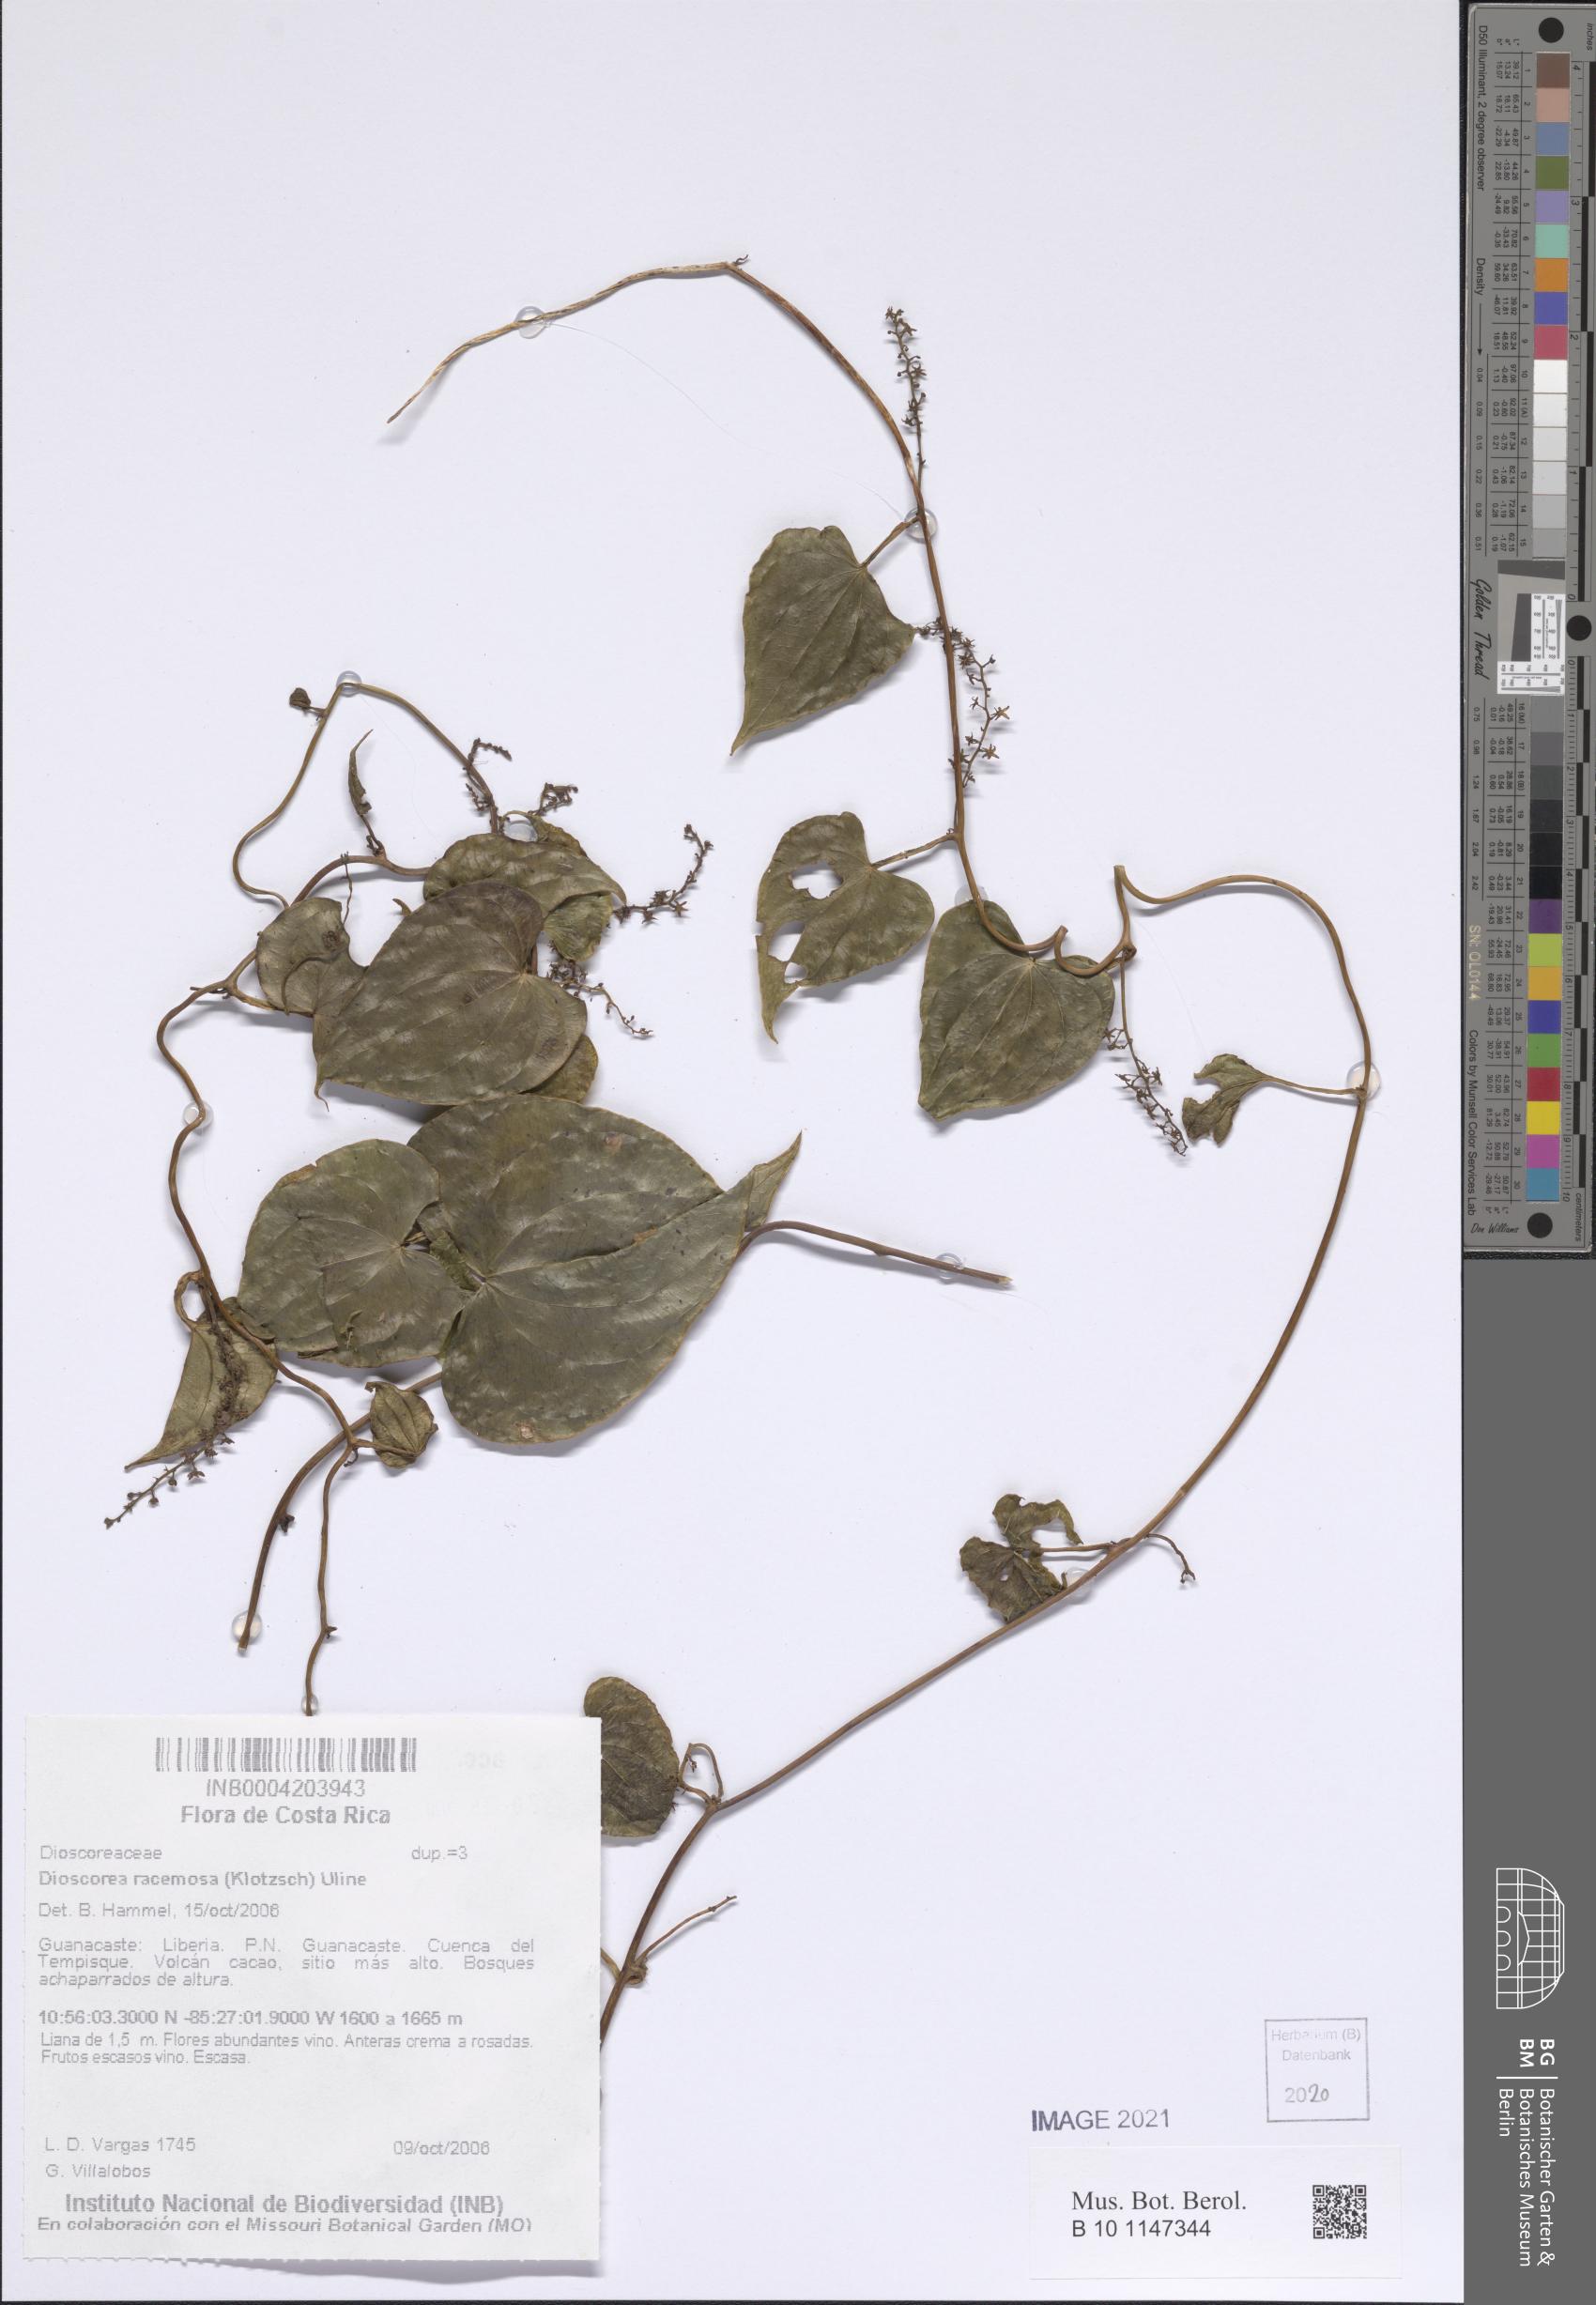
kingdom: Plantae
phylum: Tracheophyta
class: Liliopsida
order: Dioscoreales
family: Dioscoreaceae
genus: Dioscorea
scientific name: Dioscorea dodecaneura
